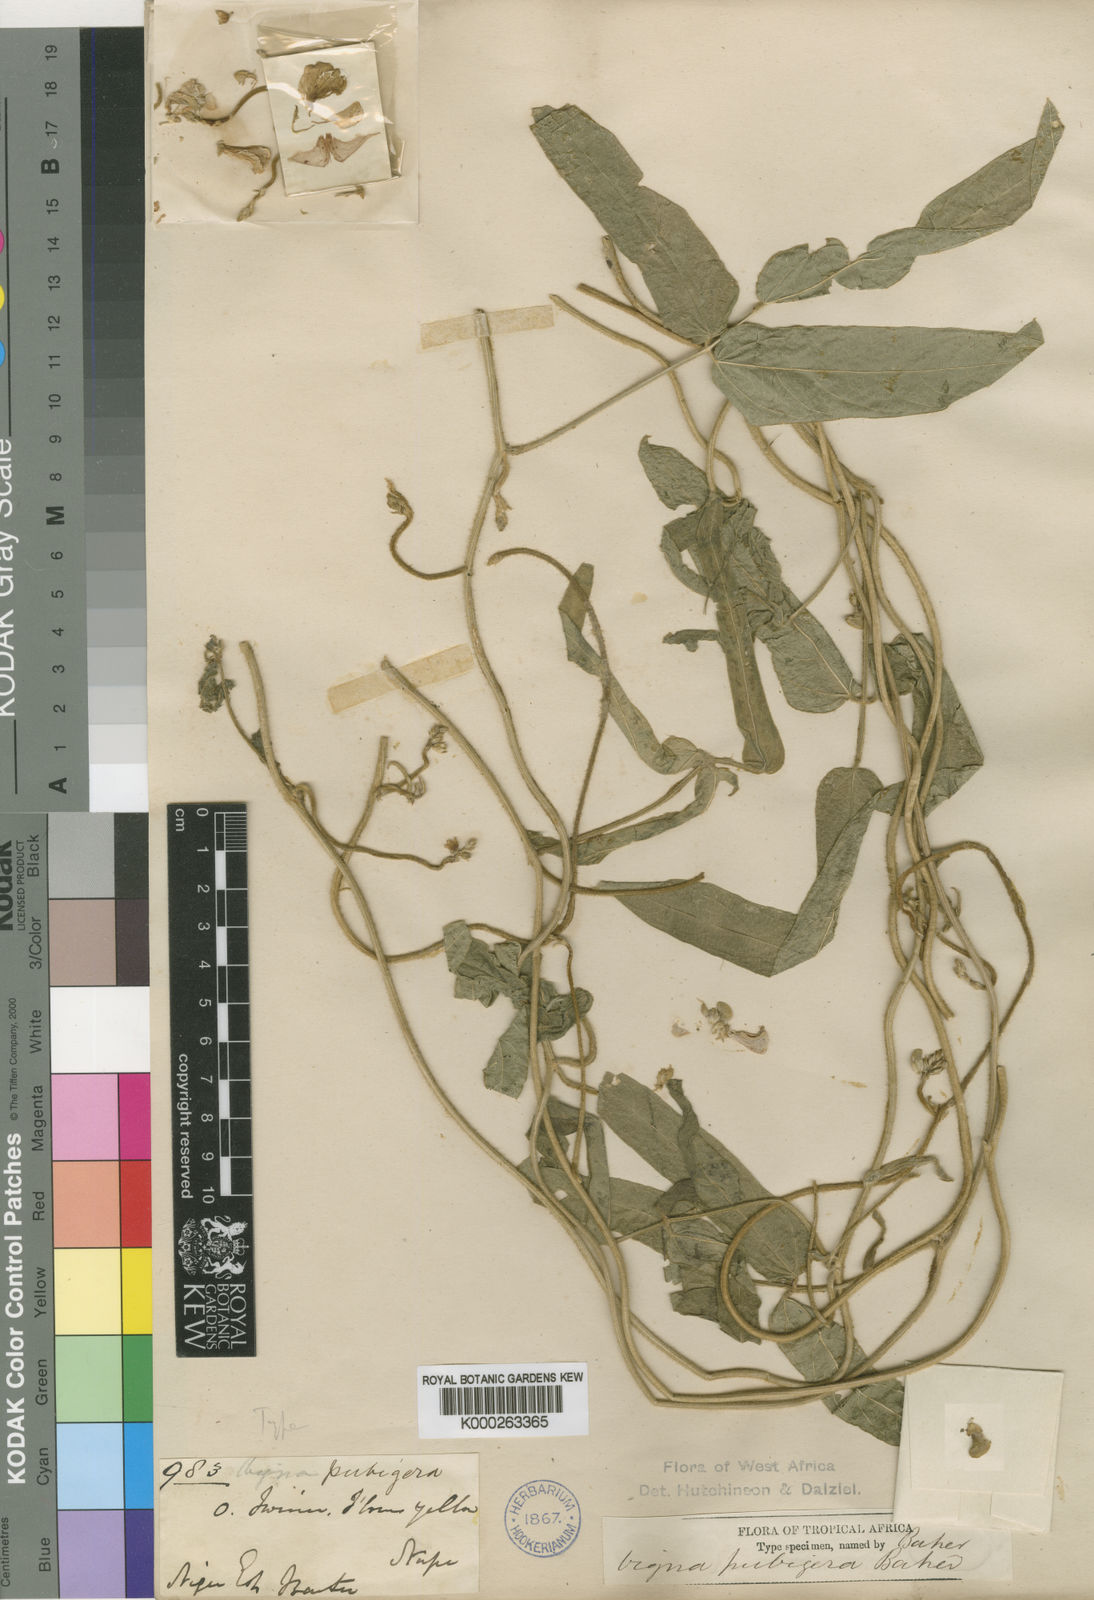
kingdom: Plantae
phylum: Tracheophyta
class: Magnoliopsida
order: Fabales
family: Fabaceae
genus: Vigna
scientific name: Vigna ambacensis
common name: Tsarkiyan zomo
